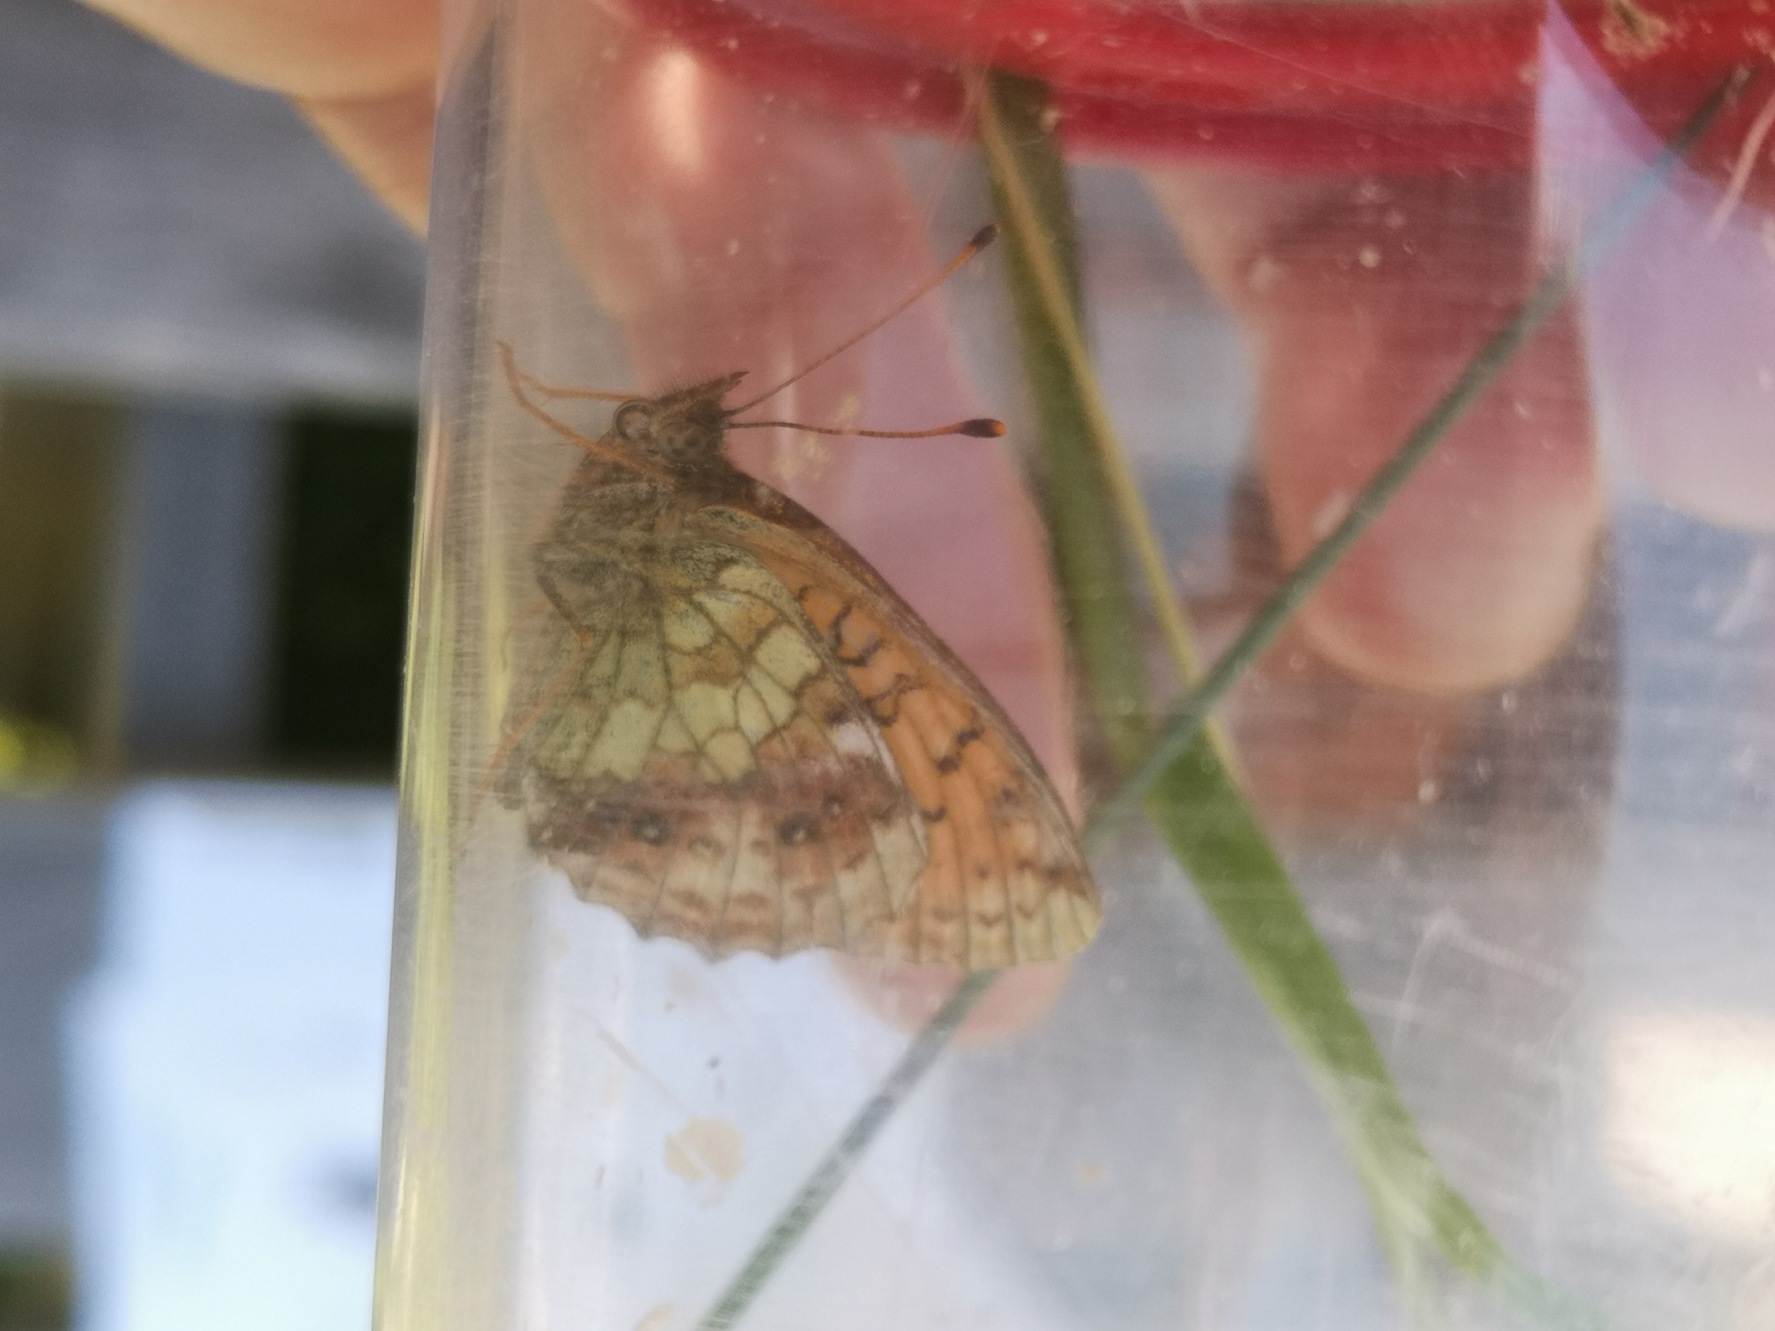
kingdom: Animalia
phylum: Arthropoda
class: Insecta
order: Lepidoptera
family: Nymphalidae
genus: Brenthis
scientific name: Brenthis ino
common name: Engperlemorsommerfugl
